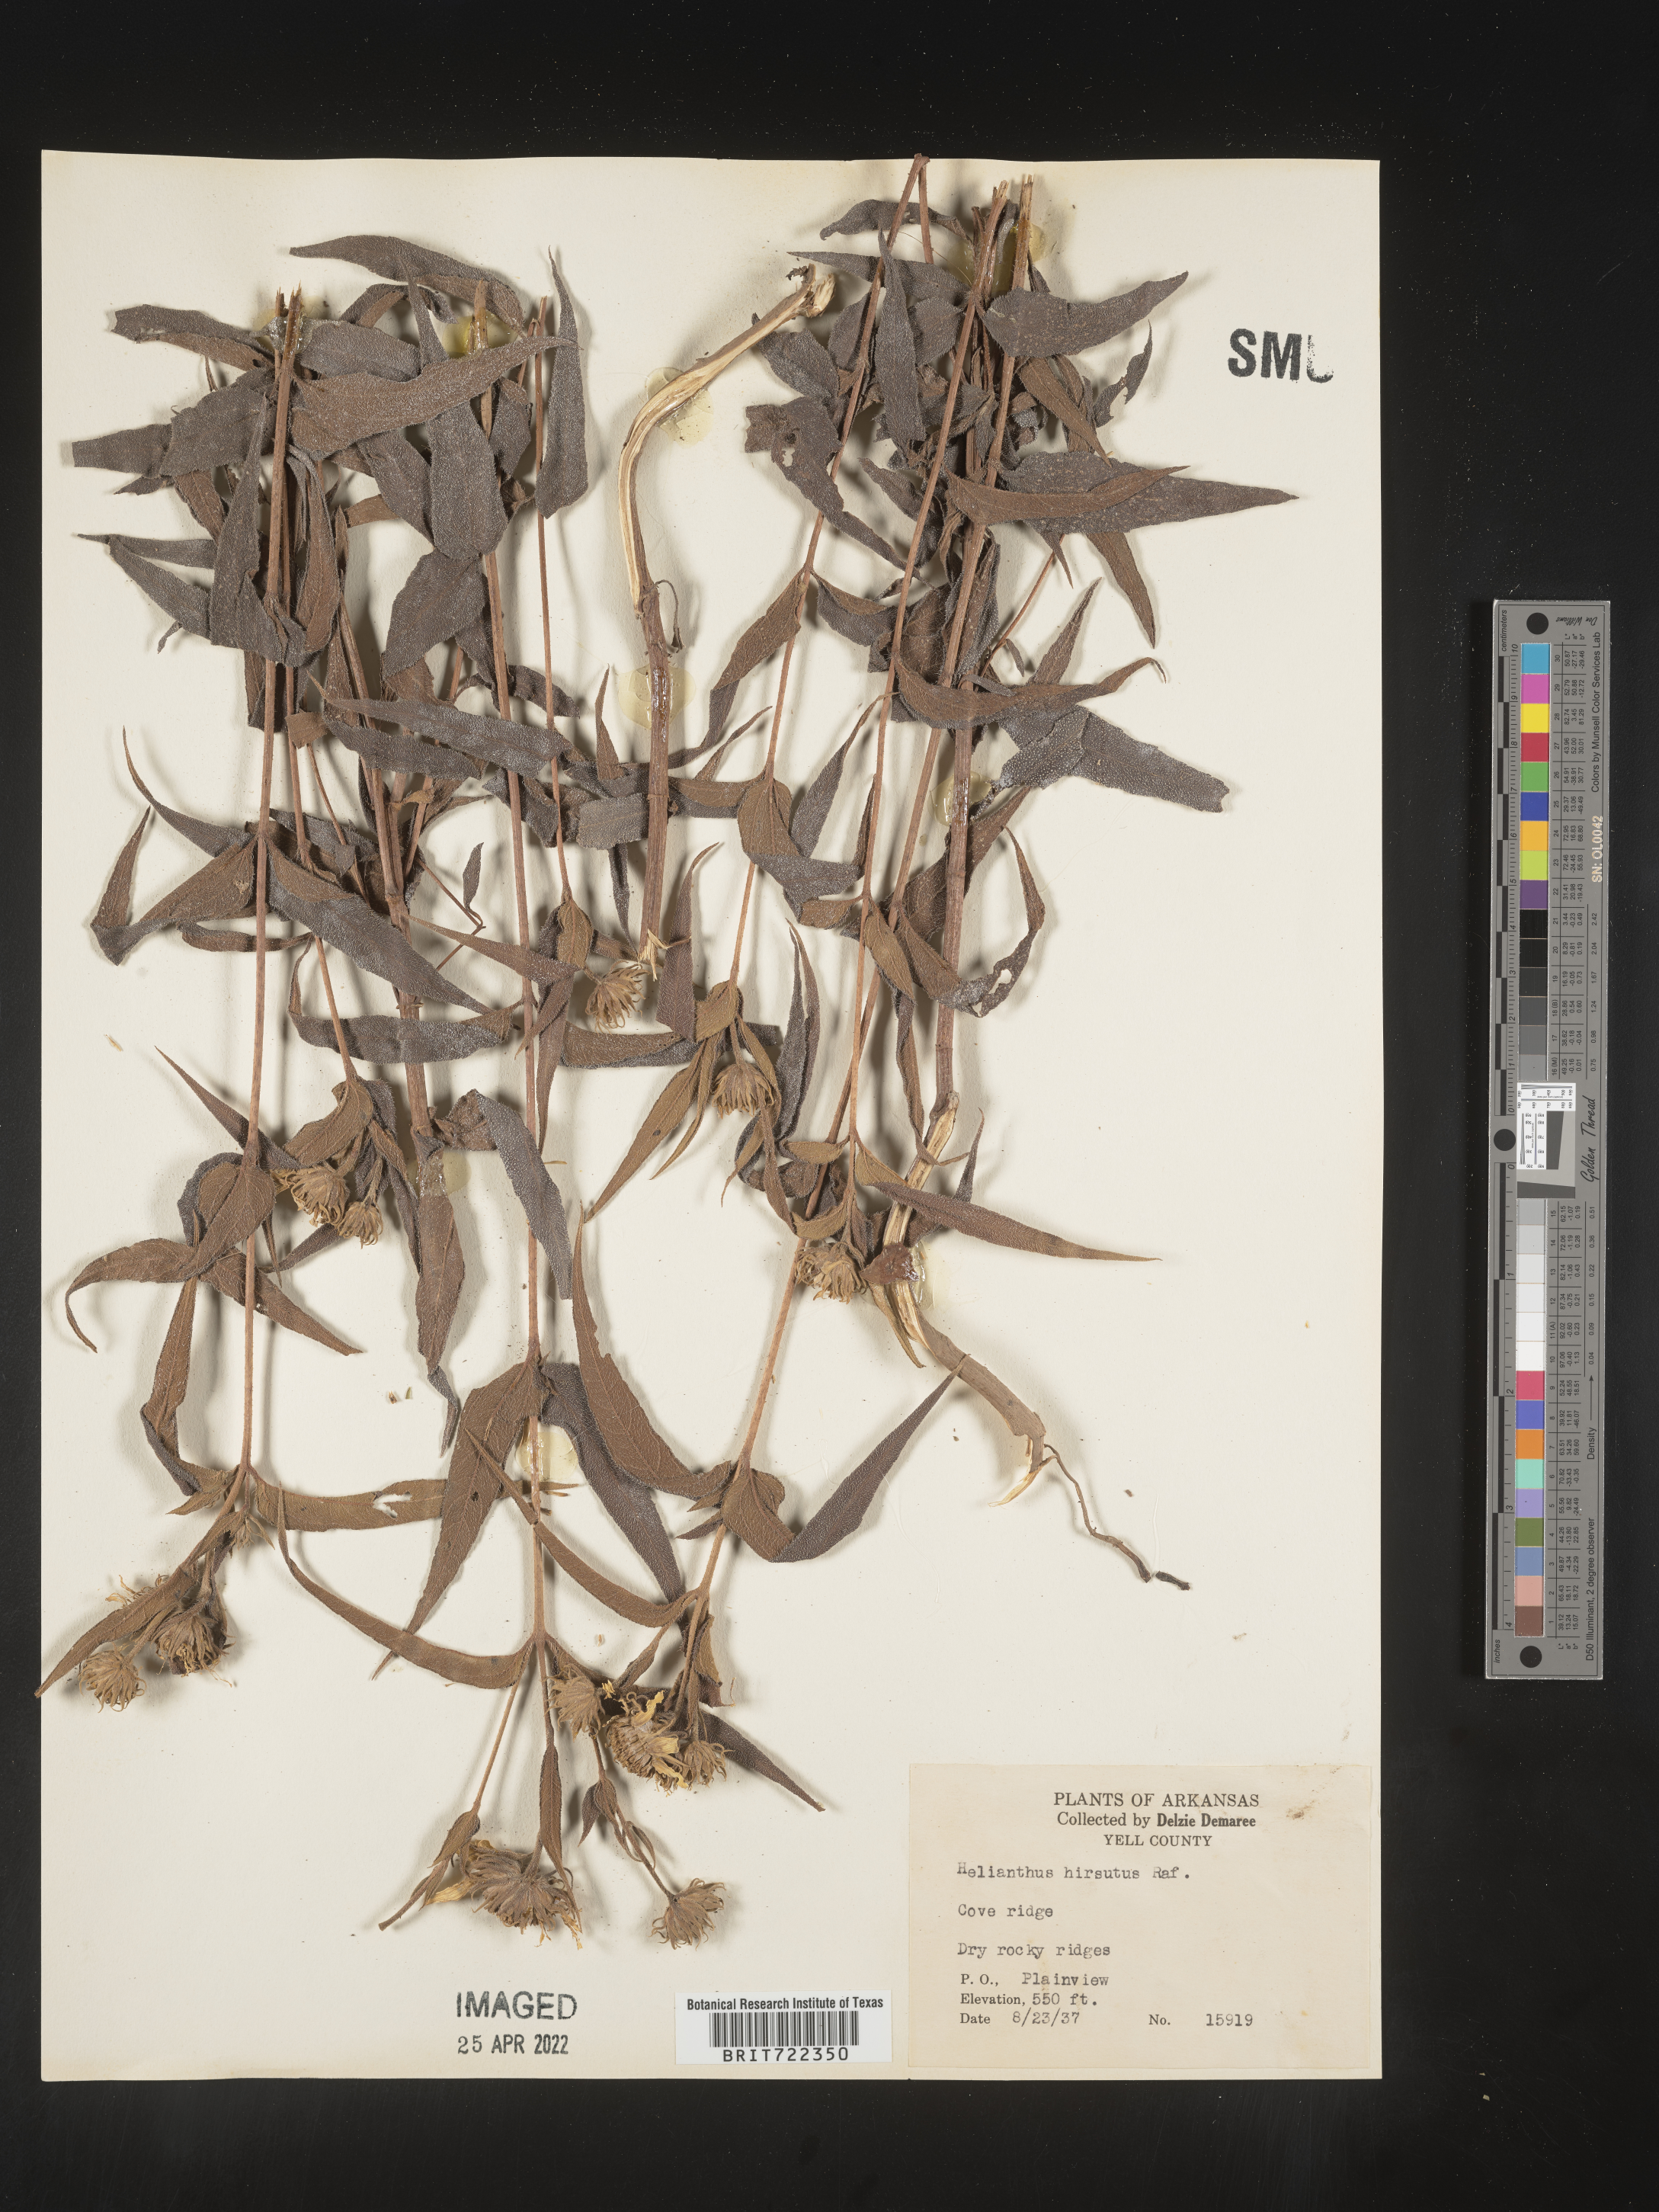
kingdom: Plantae
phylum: Tracheophyta
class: Magnoliopsida
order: Asterales
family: Asteraceae
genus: Helianthus
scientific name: Helianthus hirsutus
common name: Hairy sunflower
